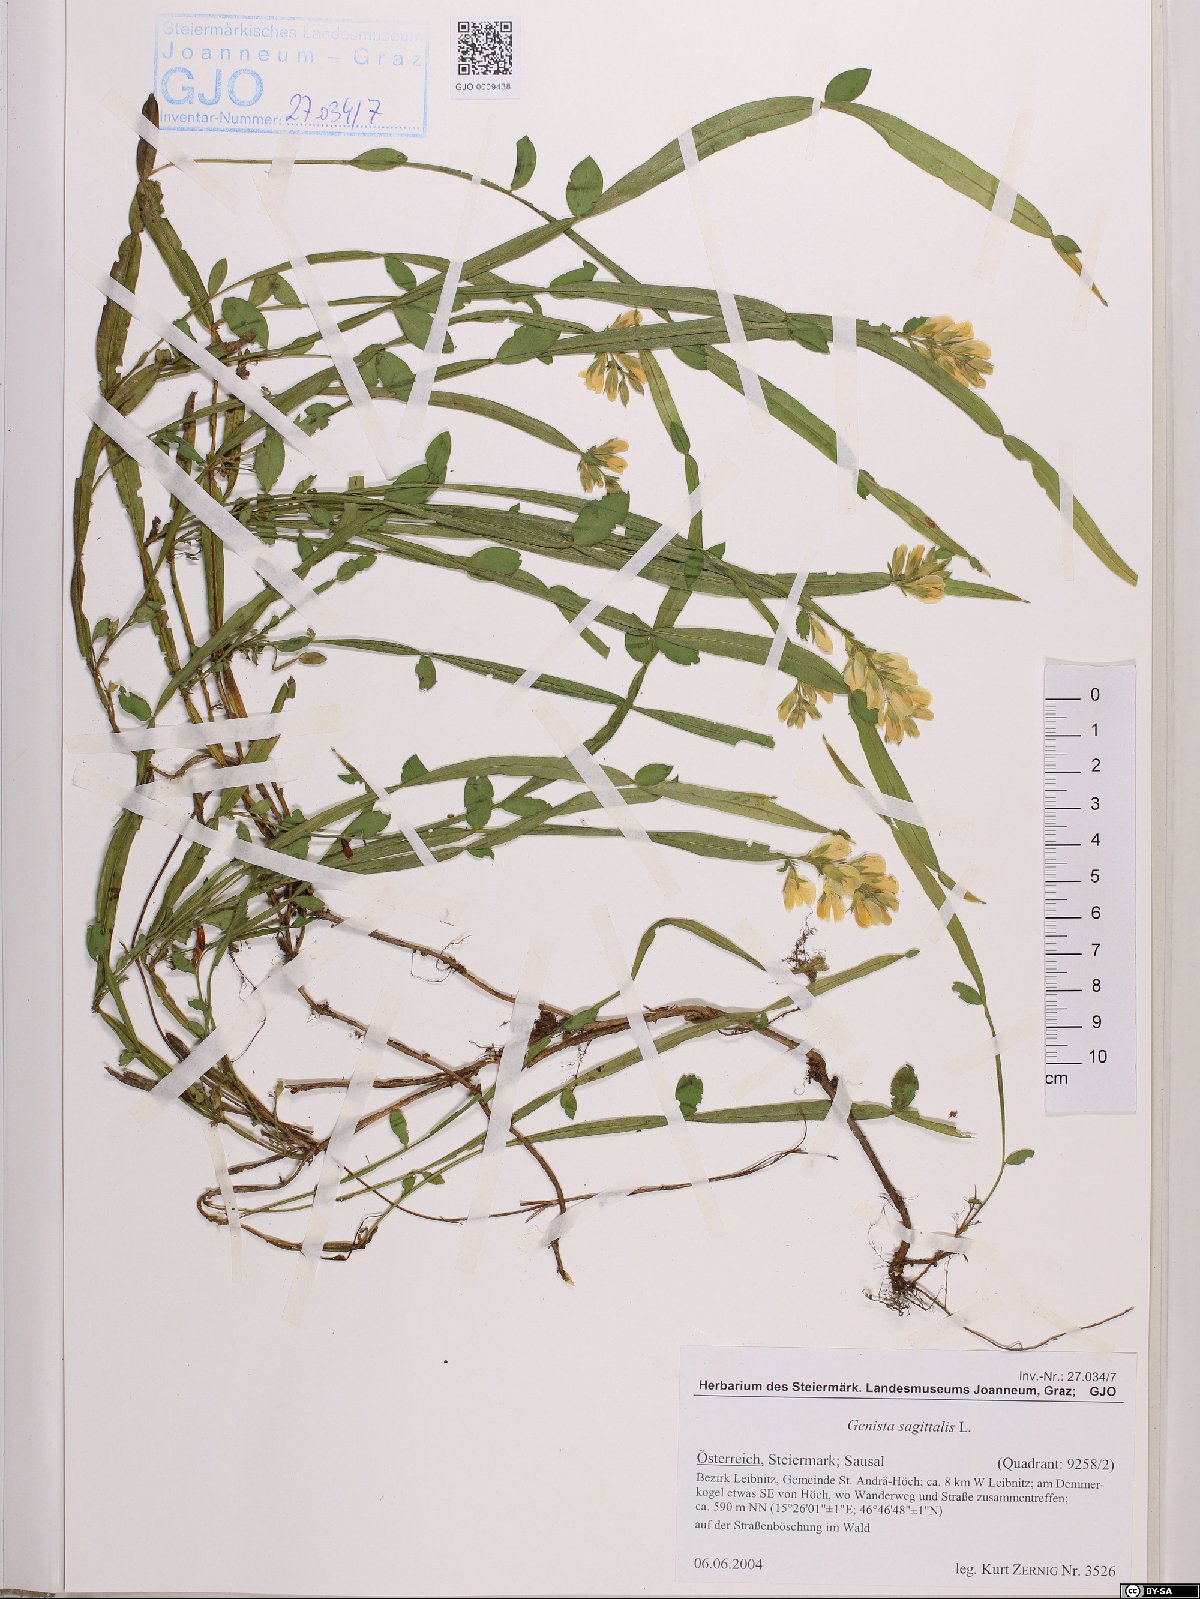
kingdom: Plantae
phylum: Tracheophyta
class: Magnoliopsida
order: Fabales
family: Fabaceae
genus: Genista
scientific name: Genista sagittalis
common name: Winged greenweed
